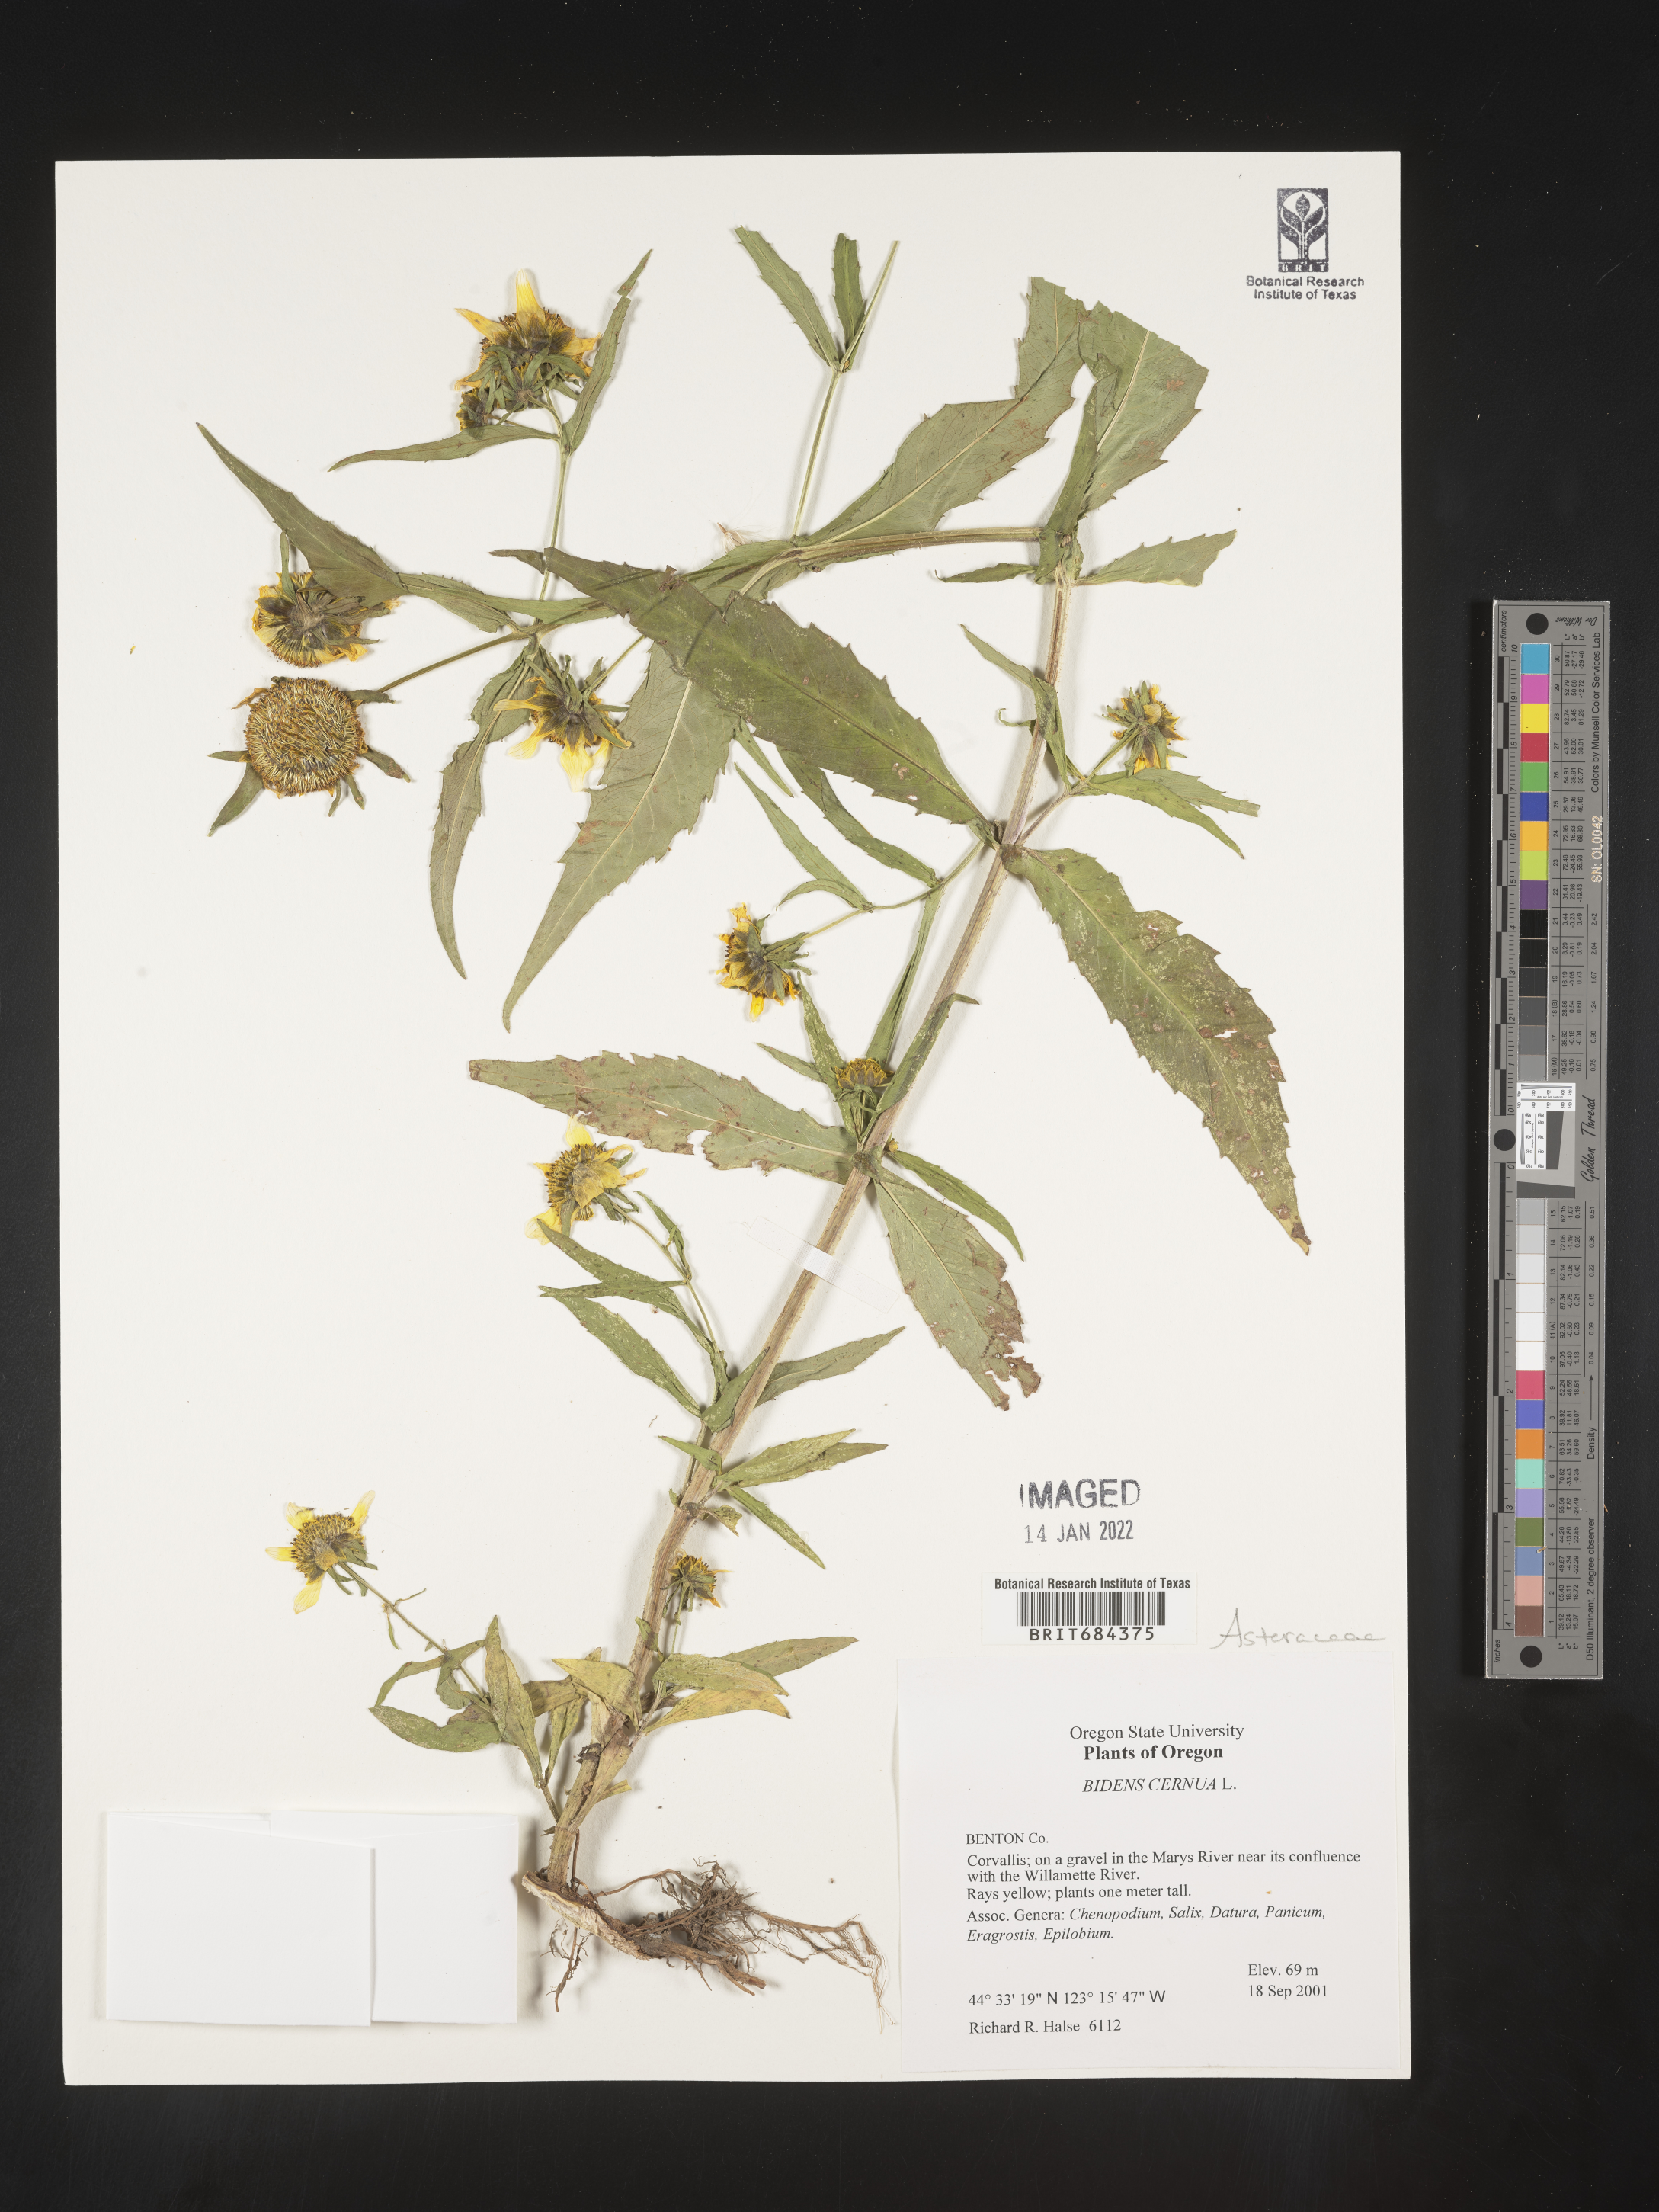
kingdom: Plantae
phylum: Tracheophyta
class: Magnoliopsida
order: Asterales
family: Asteraceae
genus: Bidens
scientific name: Bidens cernua
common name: Nodding bur-marigold
